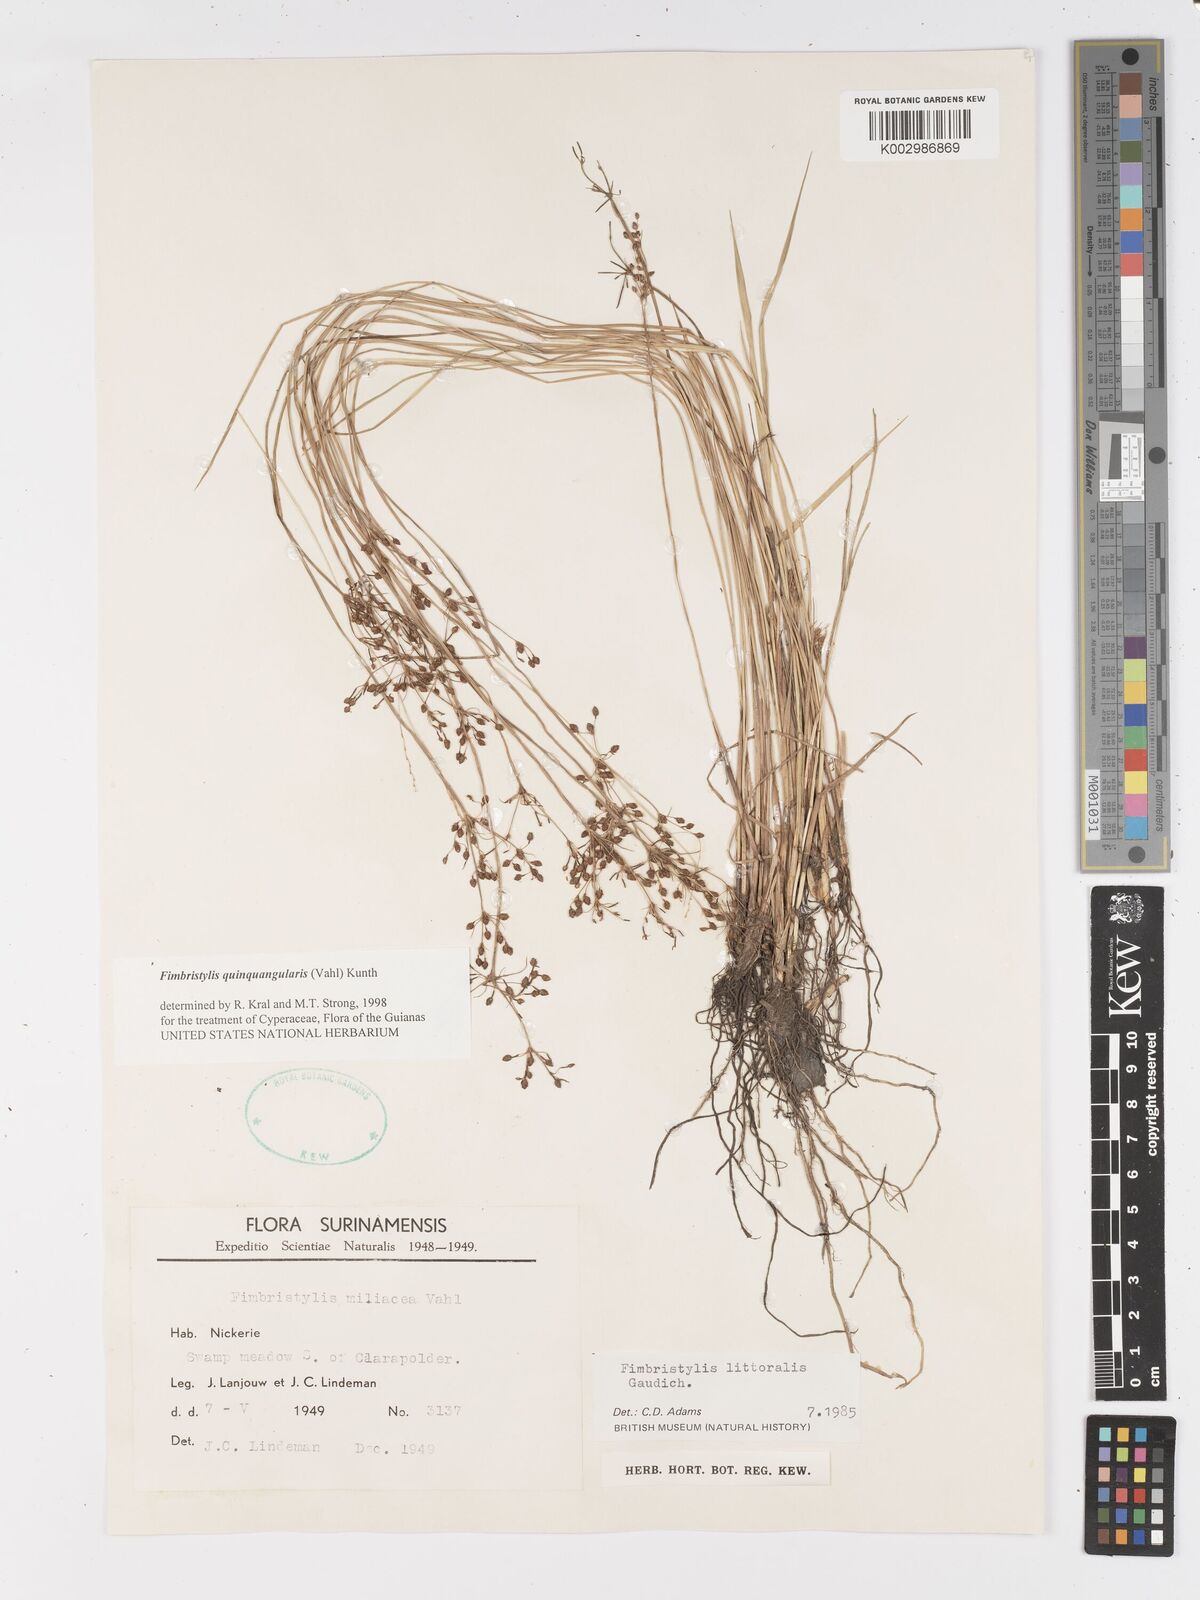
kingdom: Plantae
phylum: Tracheophyta
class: Liliopsida
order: Poales
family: Cyperaceae
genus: Fimbristylis
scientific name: Fimbristylis quinquangularis
